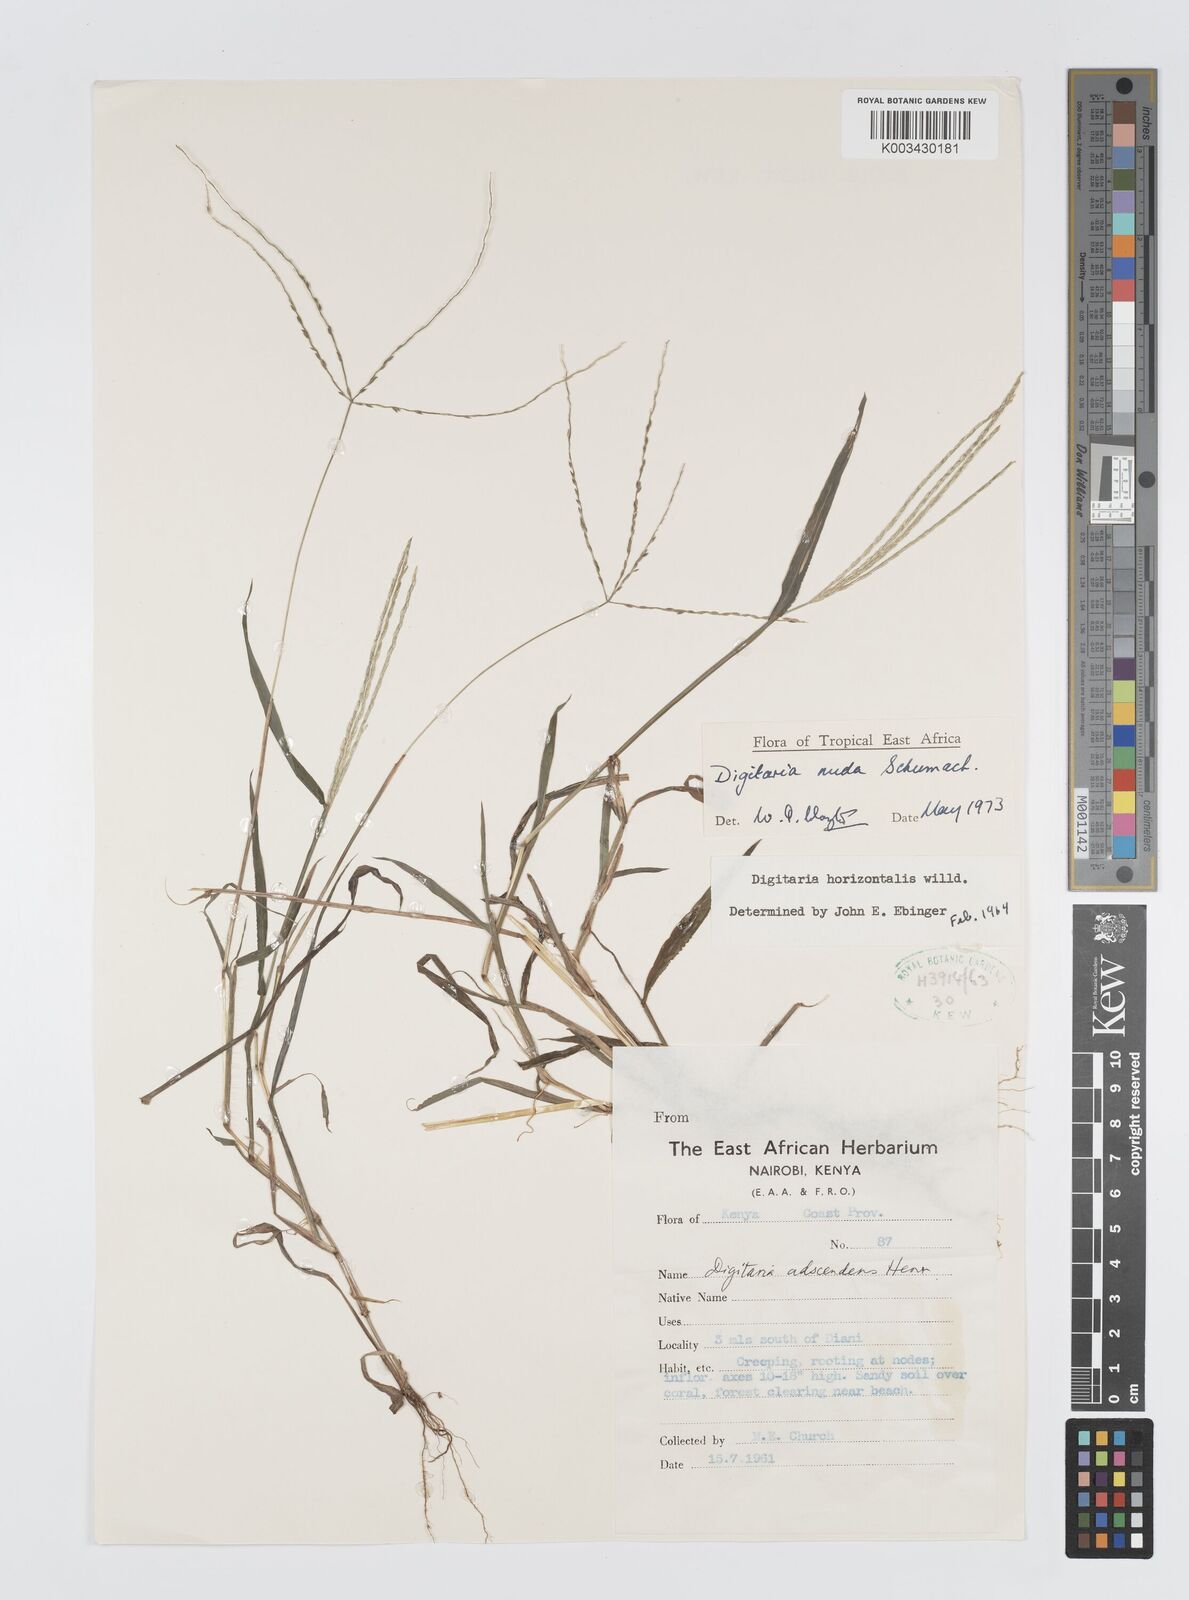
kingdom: Plantae
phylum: Tracheophyta
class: Liliopsida
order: Poales
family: Poaceae
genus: Digitaria
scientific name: Digitaria nuda
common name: Naked crabgrass
